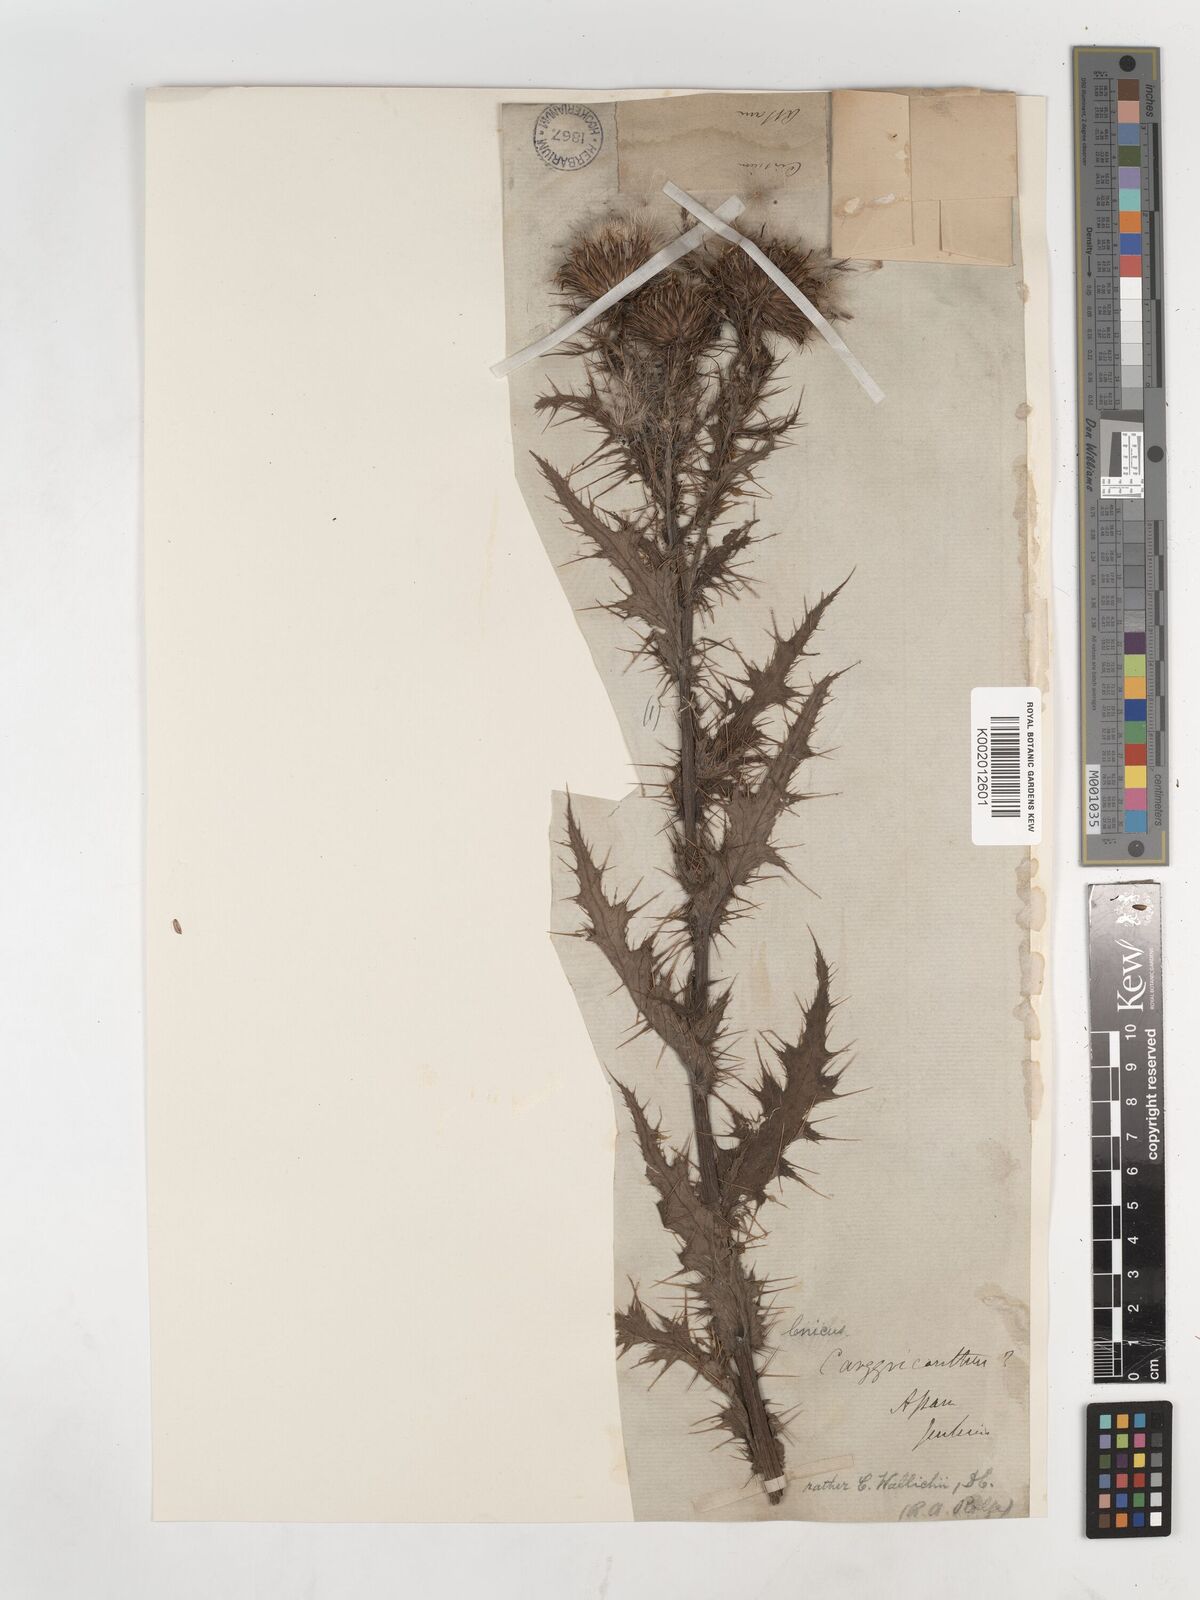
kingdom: Plantae
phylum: Tracheophyta
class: Magnoliopsida
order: Asterales
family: Asteraceae
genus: Cirsium
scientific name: Cirsium wallichii
